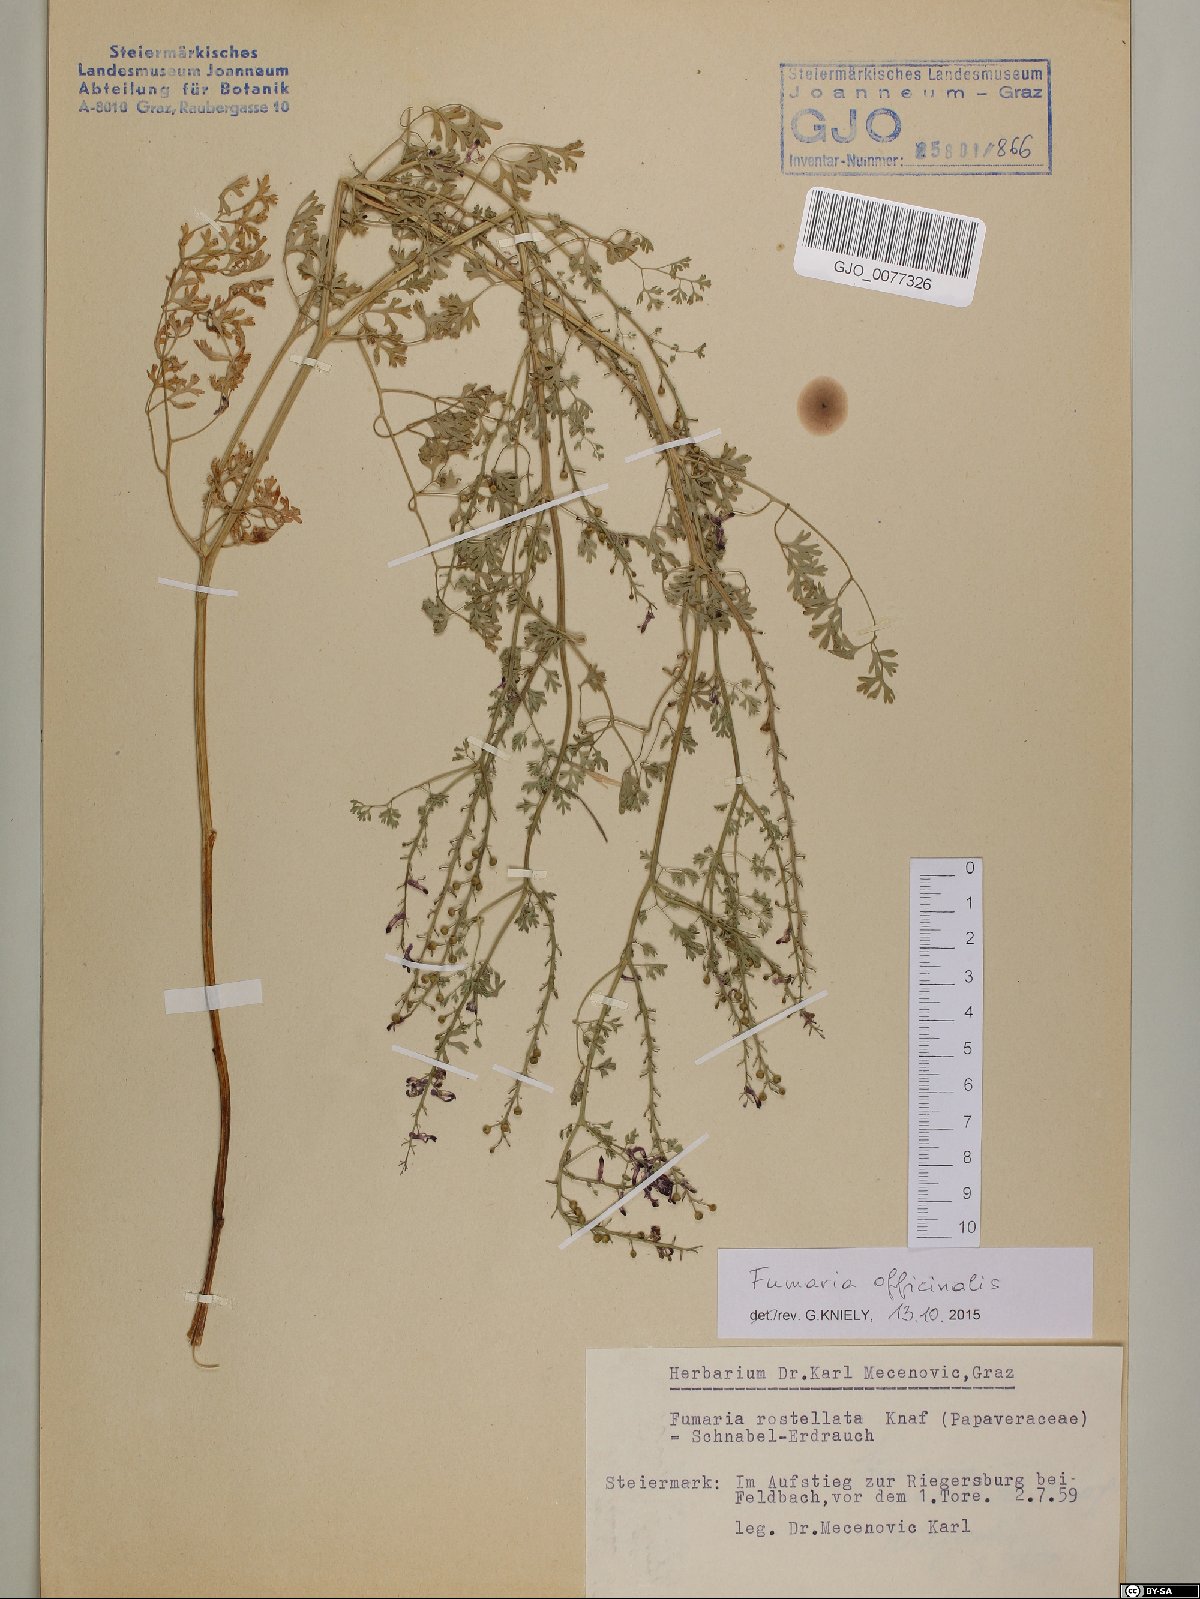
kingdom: Plantae
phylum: Tracheophyta
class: Magnoliopsida
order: Ranunculales
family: Papaveraceae
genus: Fumaria
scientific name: Fumaria officinalis
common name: Common fumitory
